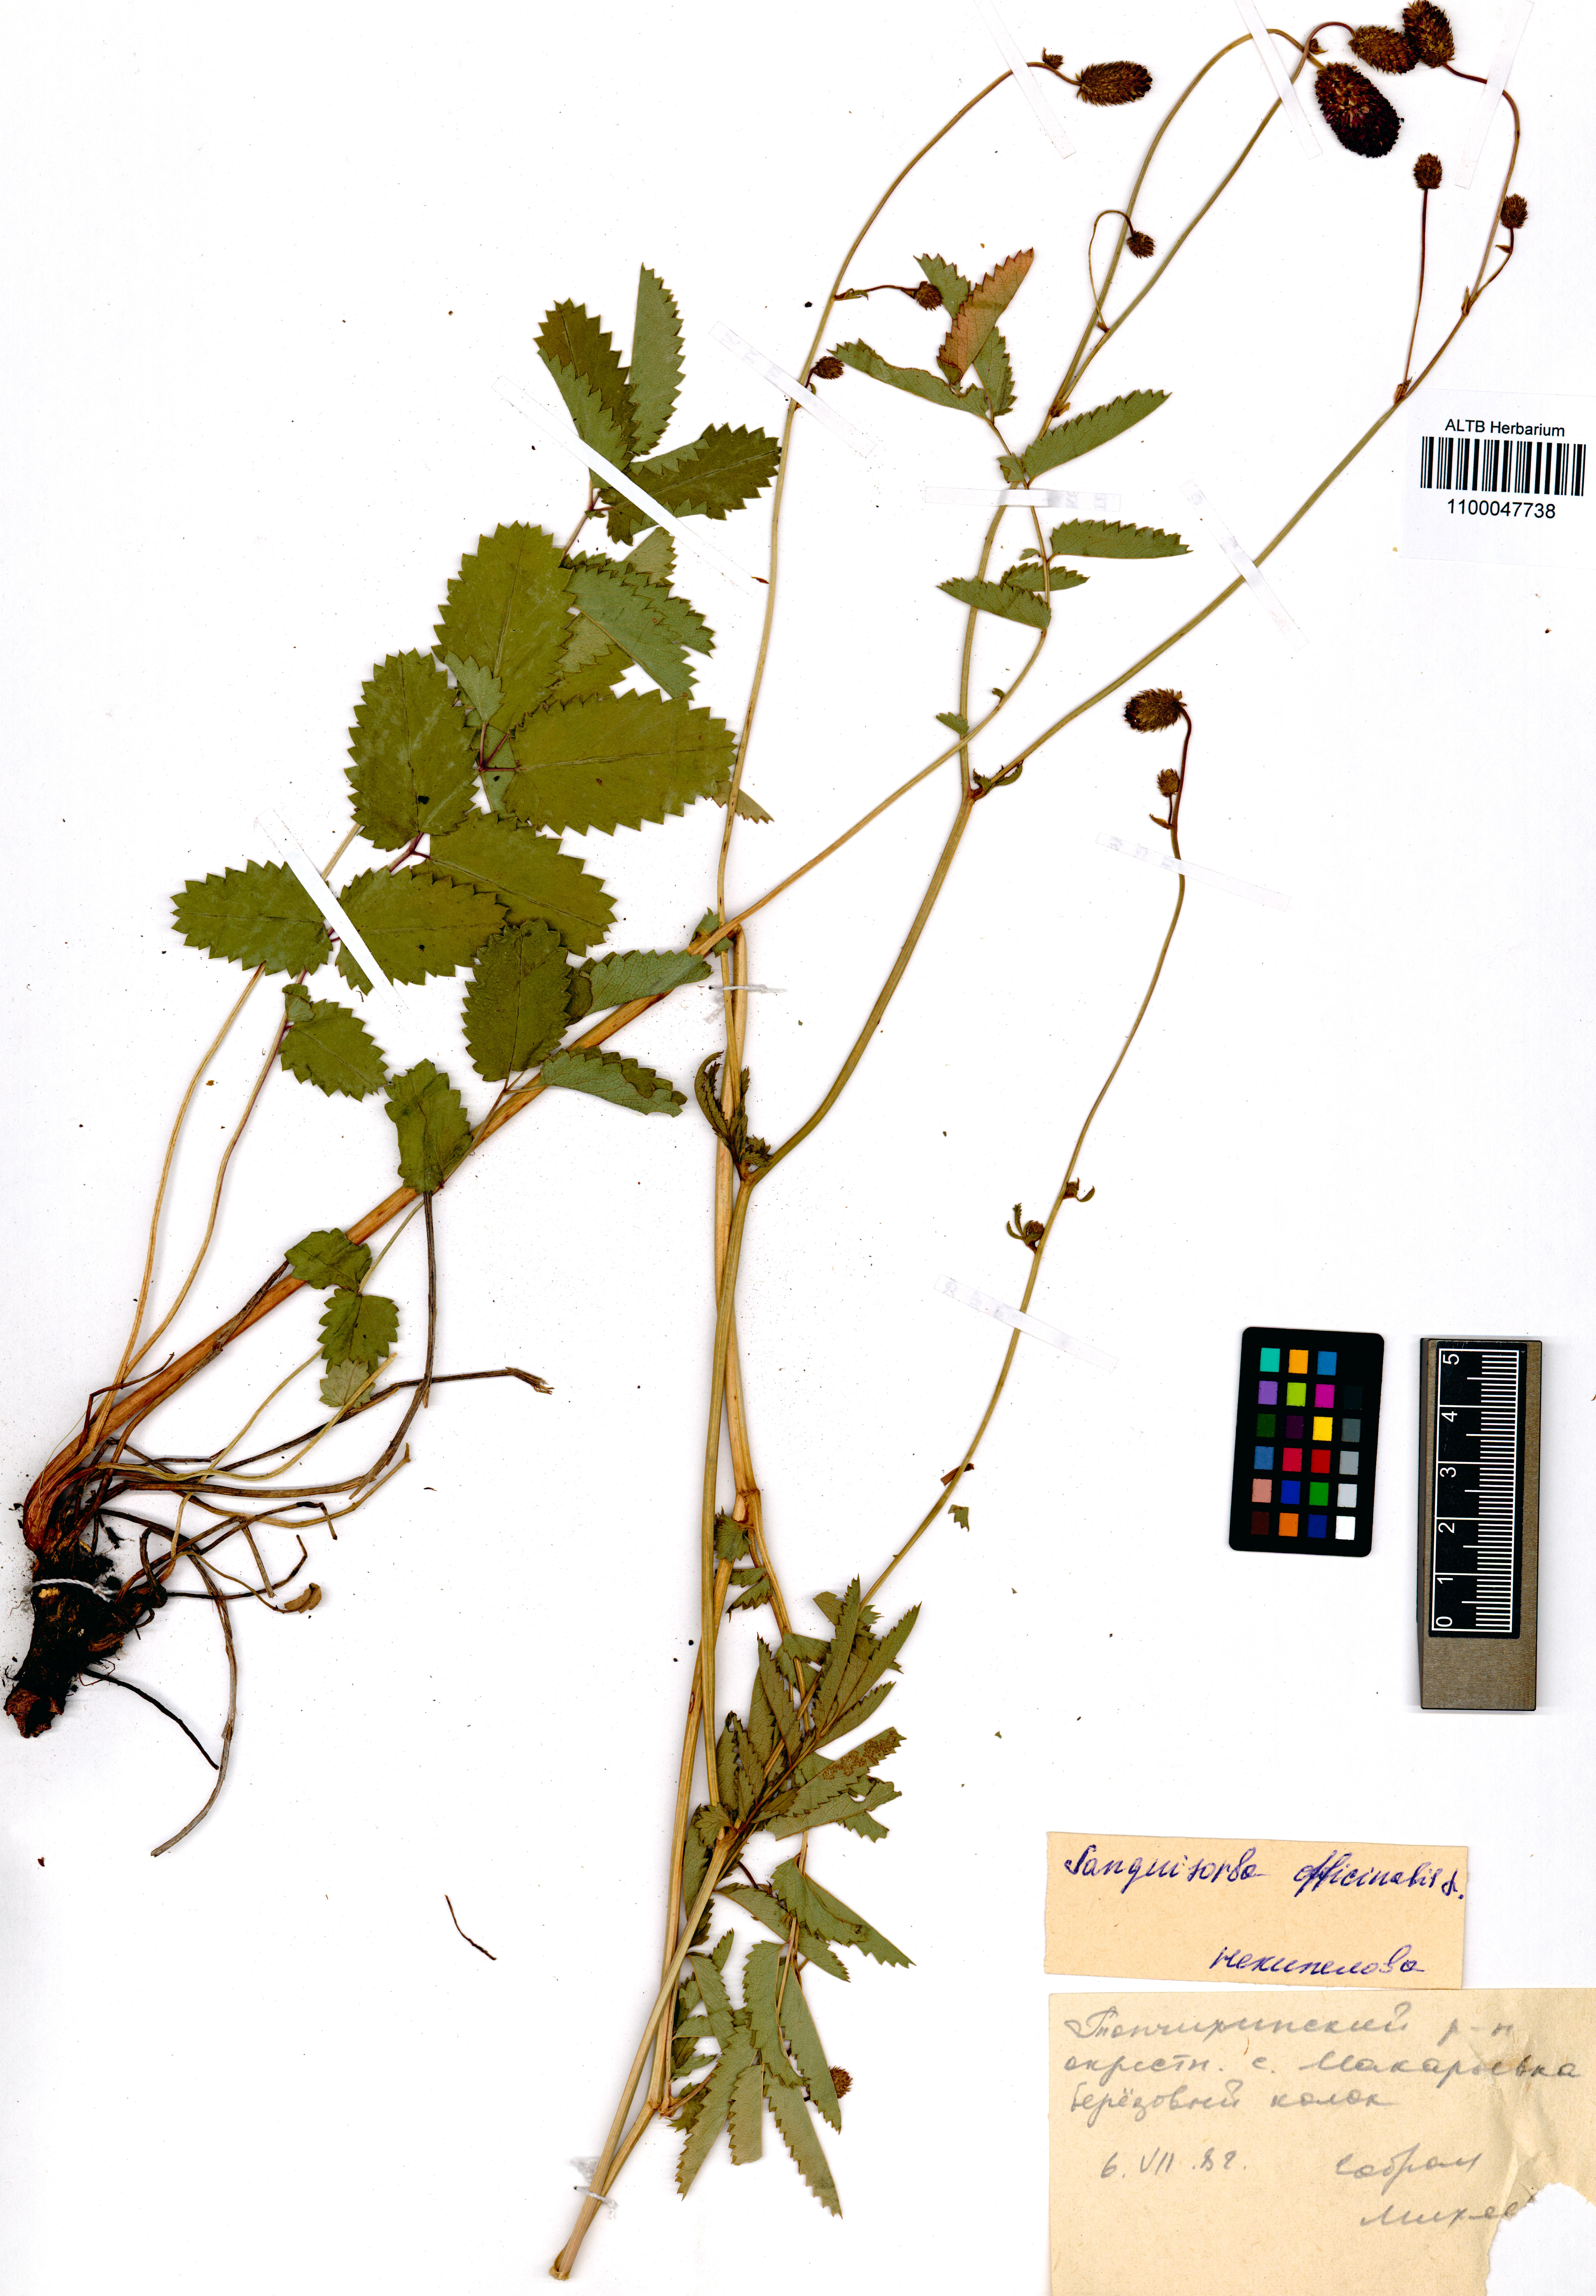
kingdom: Plantae
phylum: Tracheophyta
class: Magnoliopsida
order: Rosales
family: Rosaceae
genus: Sanguisorba
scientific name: Sanguisorba officinalis
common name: Great burnet
